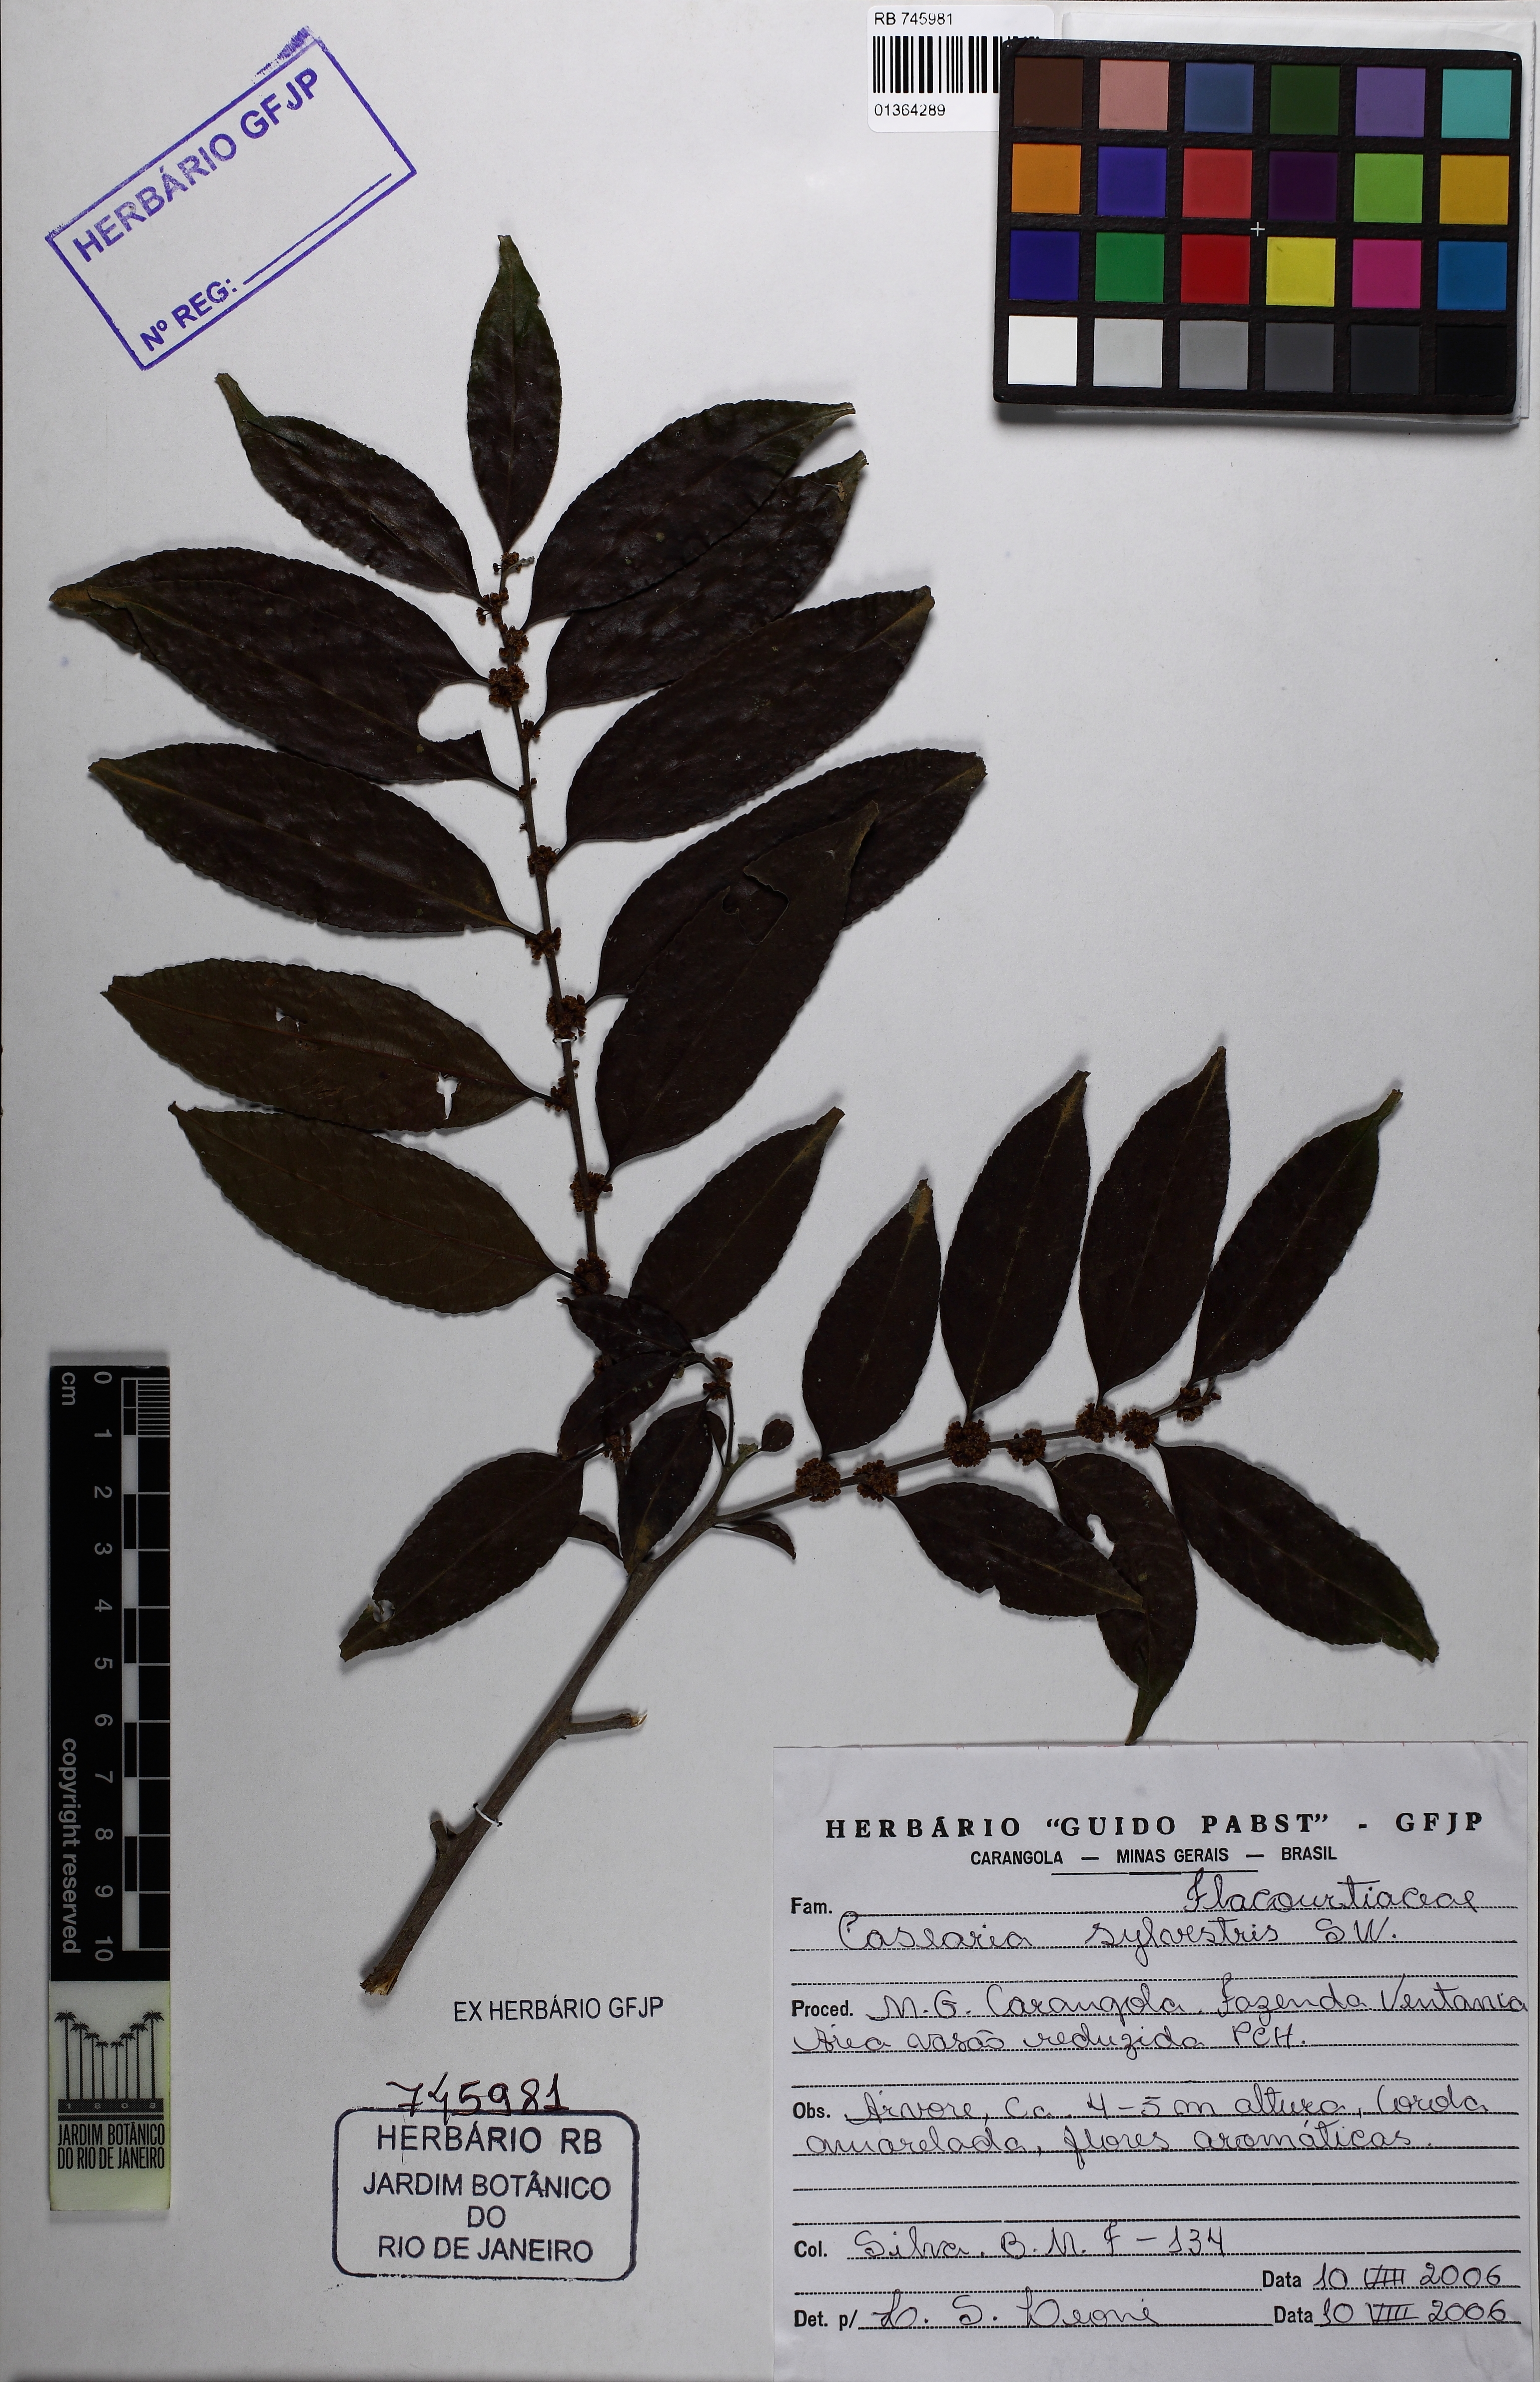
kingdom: Plantae
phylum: Tracheophyta
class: Magnoliopsida
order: Malpighiales
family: Salicaceae
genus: Casearia
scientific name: Casearia sylvestris
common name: Wild sage
